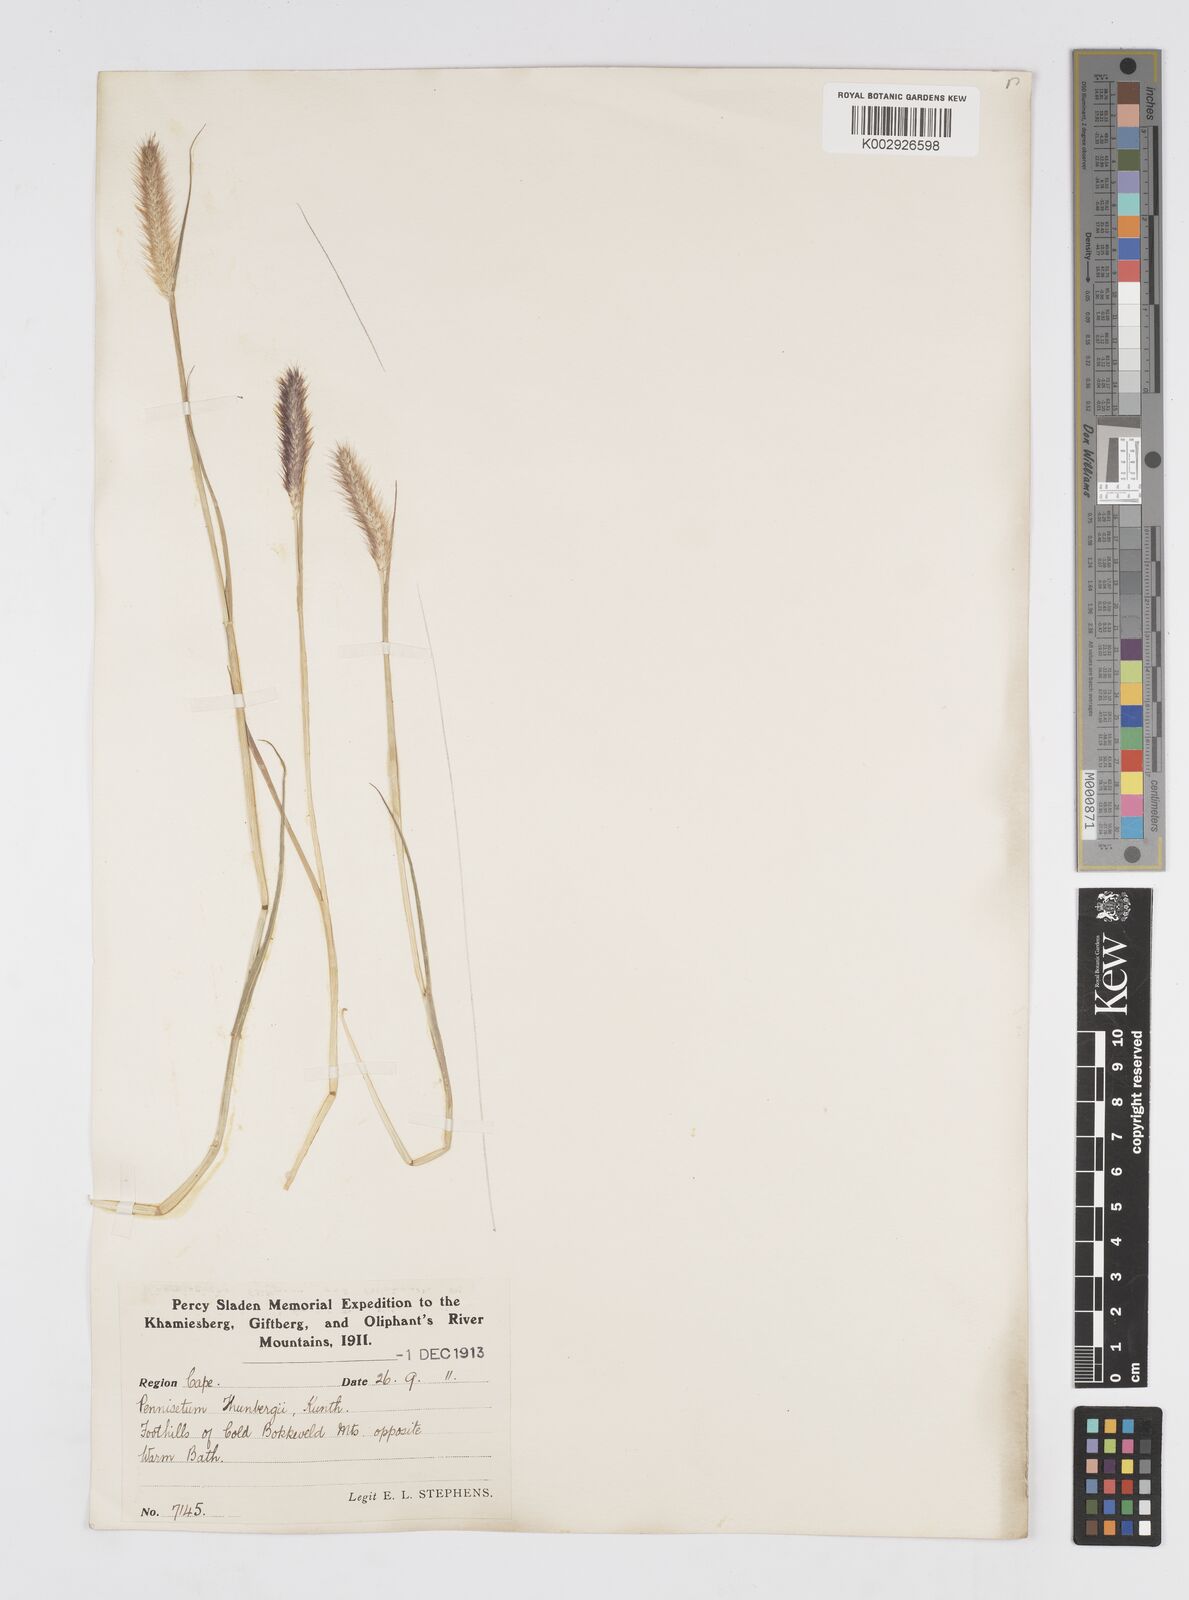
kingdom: Plantae
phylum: Tracheophyta
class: Liliopsida
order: Poales
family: Poaceae
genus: Cenchrus
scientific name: Cenchrus geniculatus
